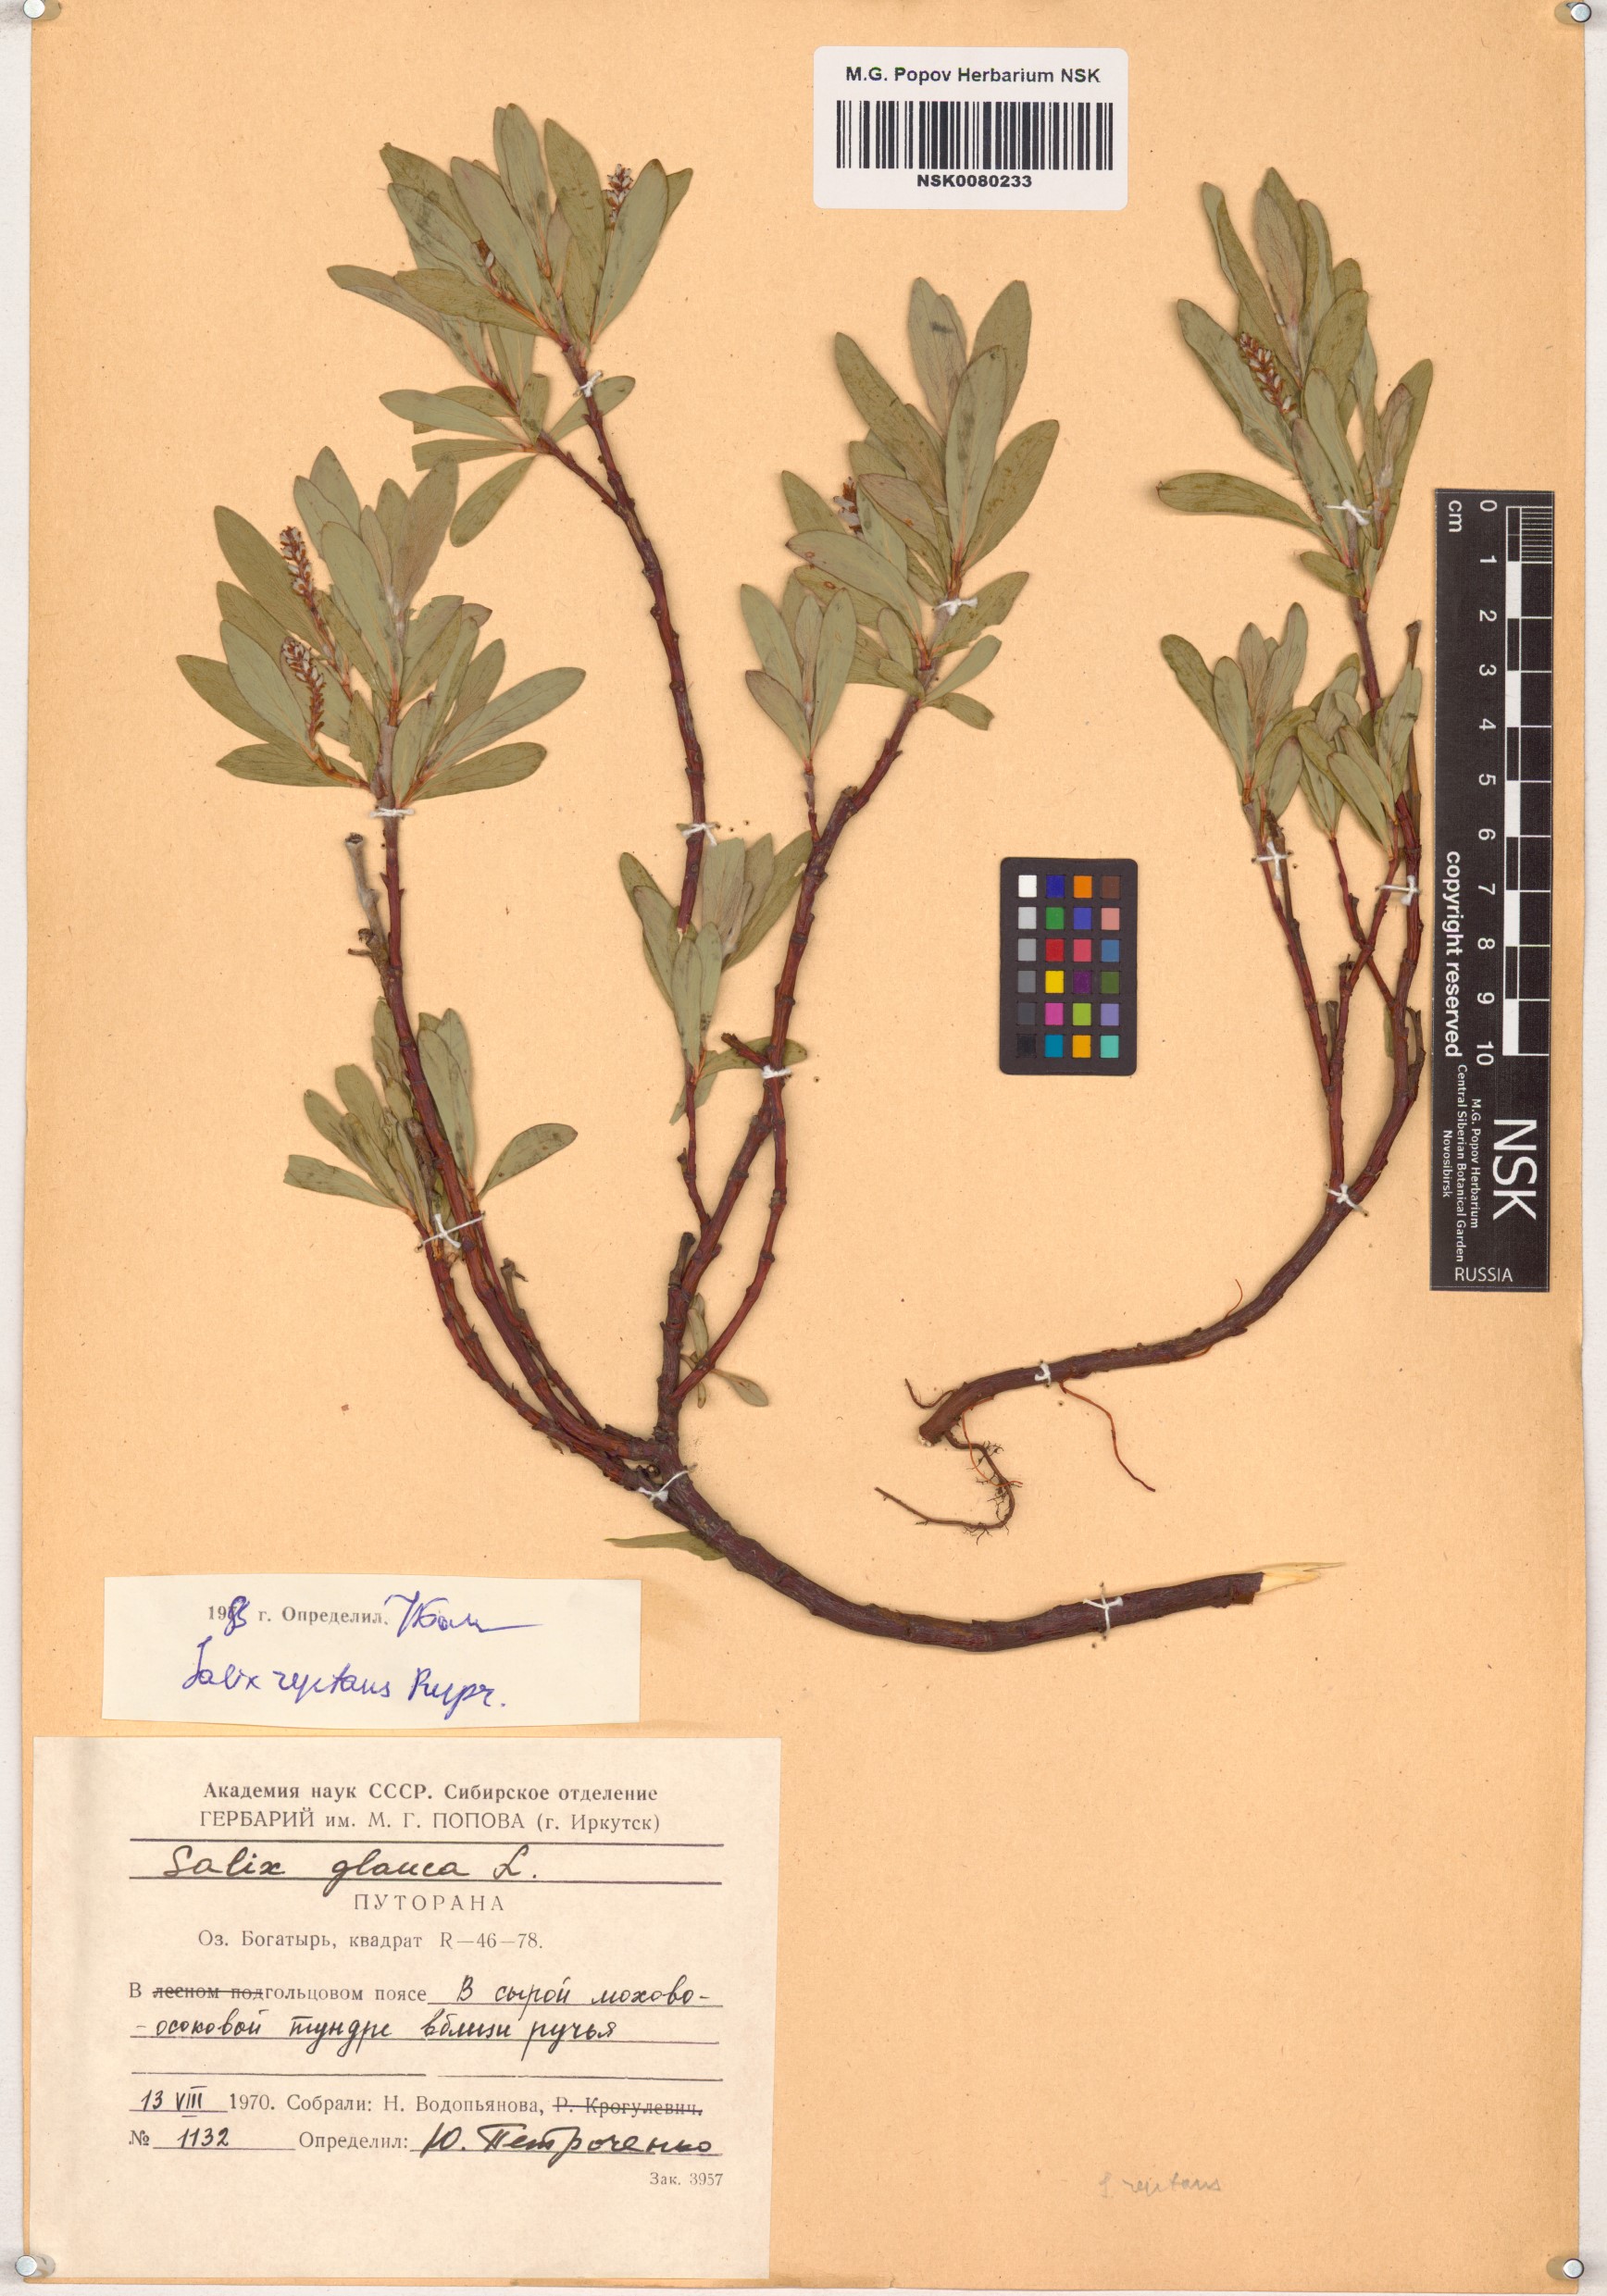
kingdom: Plantae
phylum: Tracheophyta
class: Magnoliopsida
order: Malpighiales
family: Salicaceae
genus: Salix
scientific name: Salix reptans
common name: Arctic creeping willow
